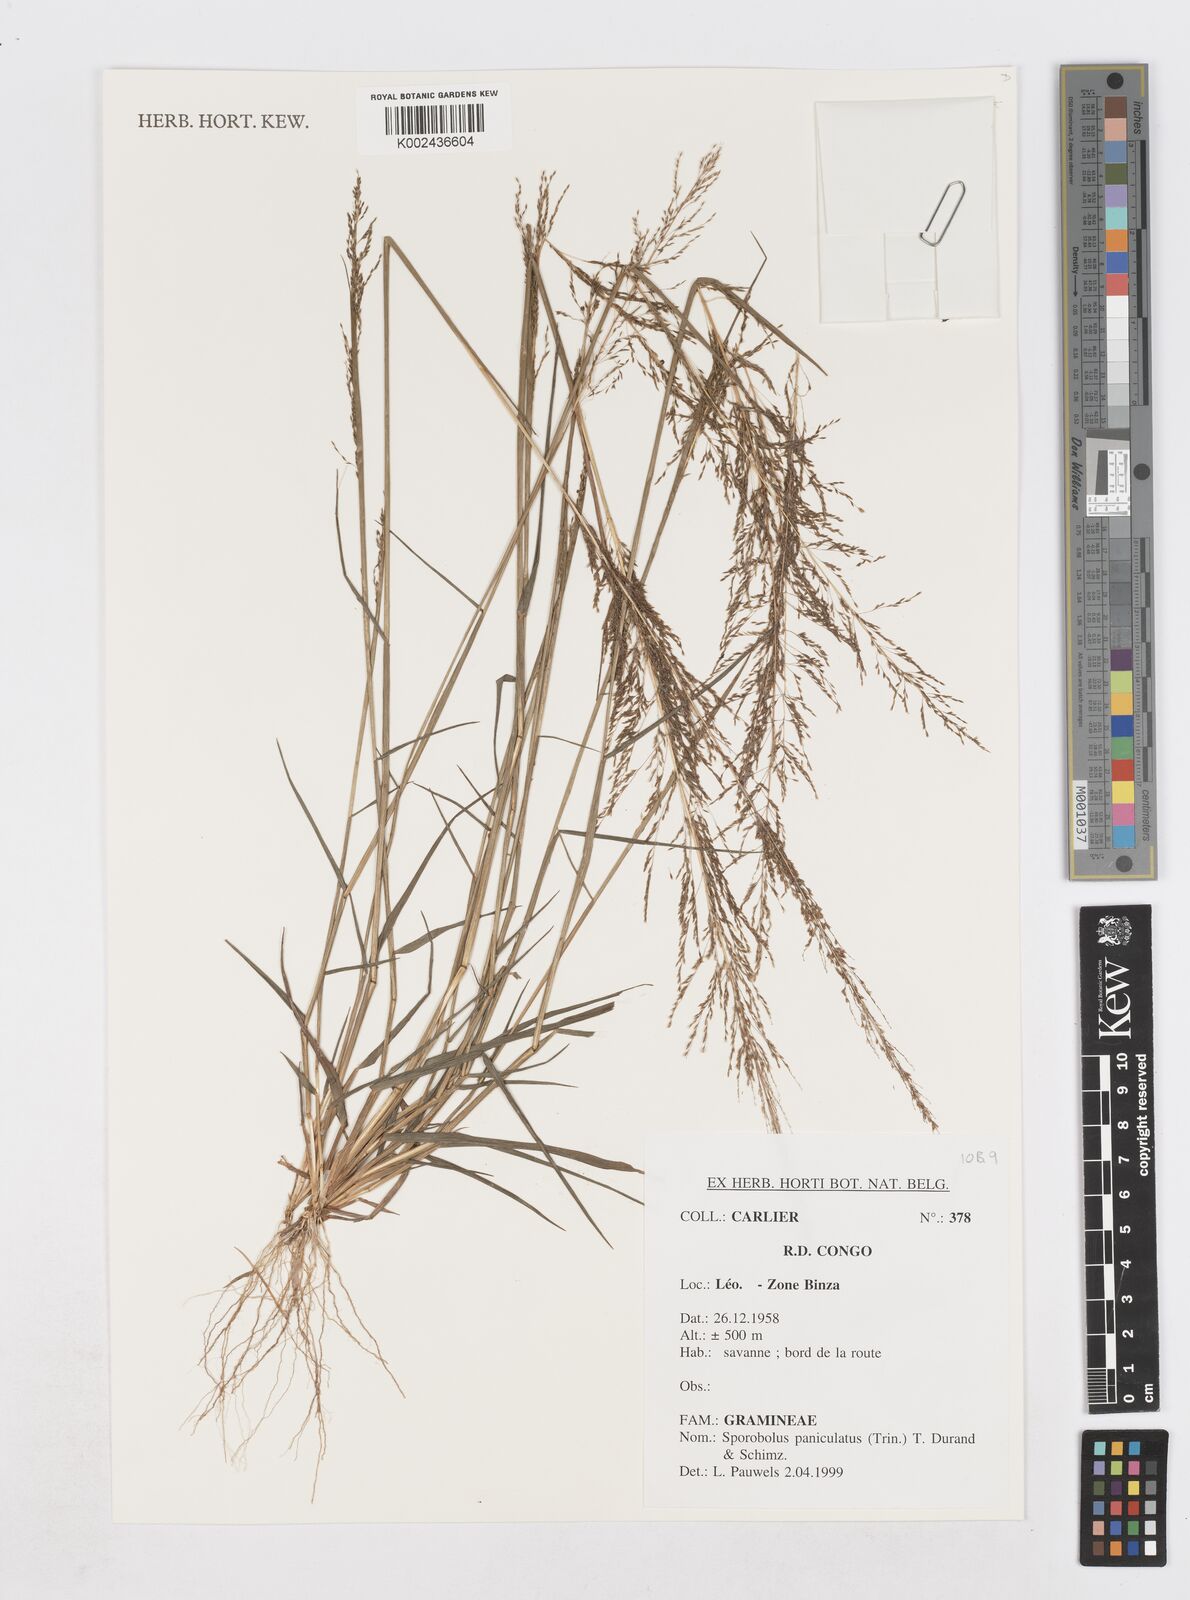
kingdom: Plantae
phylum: Tracheophyta
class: Liliopsida
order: Poales
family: Poaceae
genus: Sporobolus
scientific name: Sporobolus paniculatus
